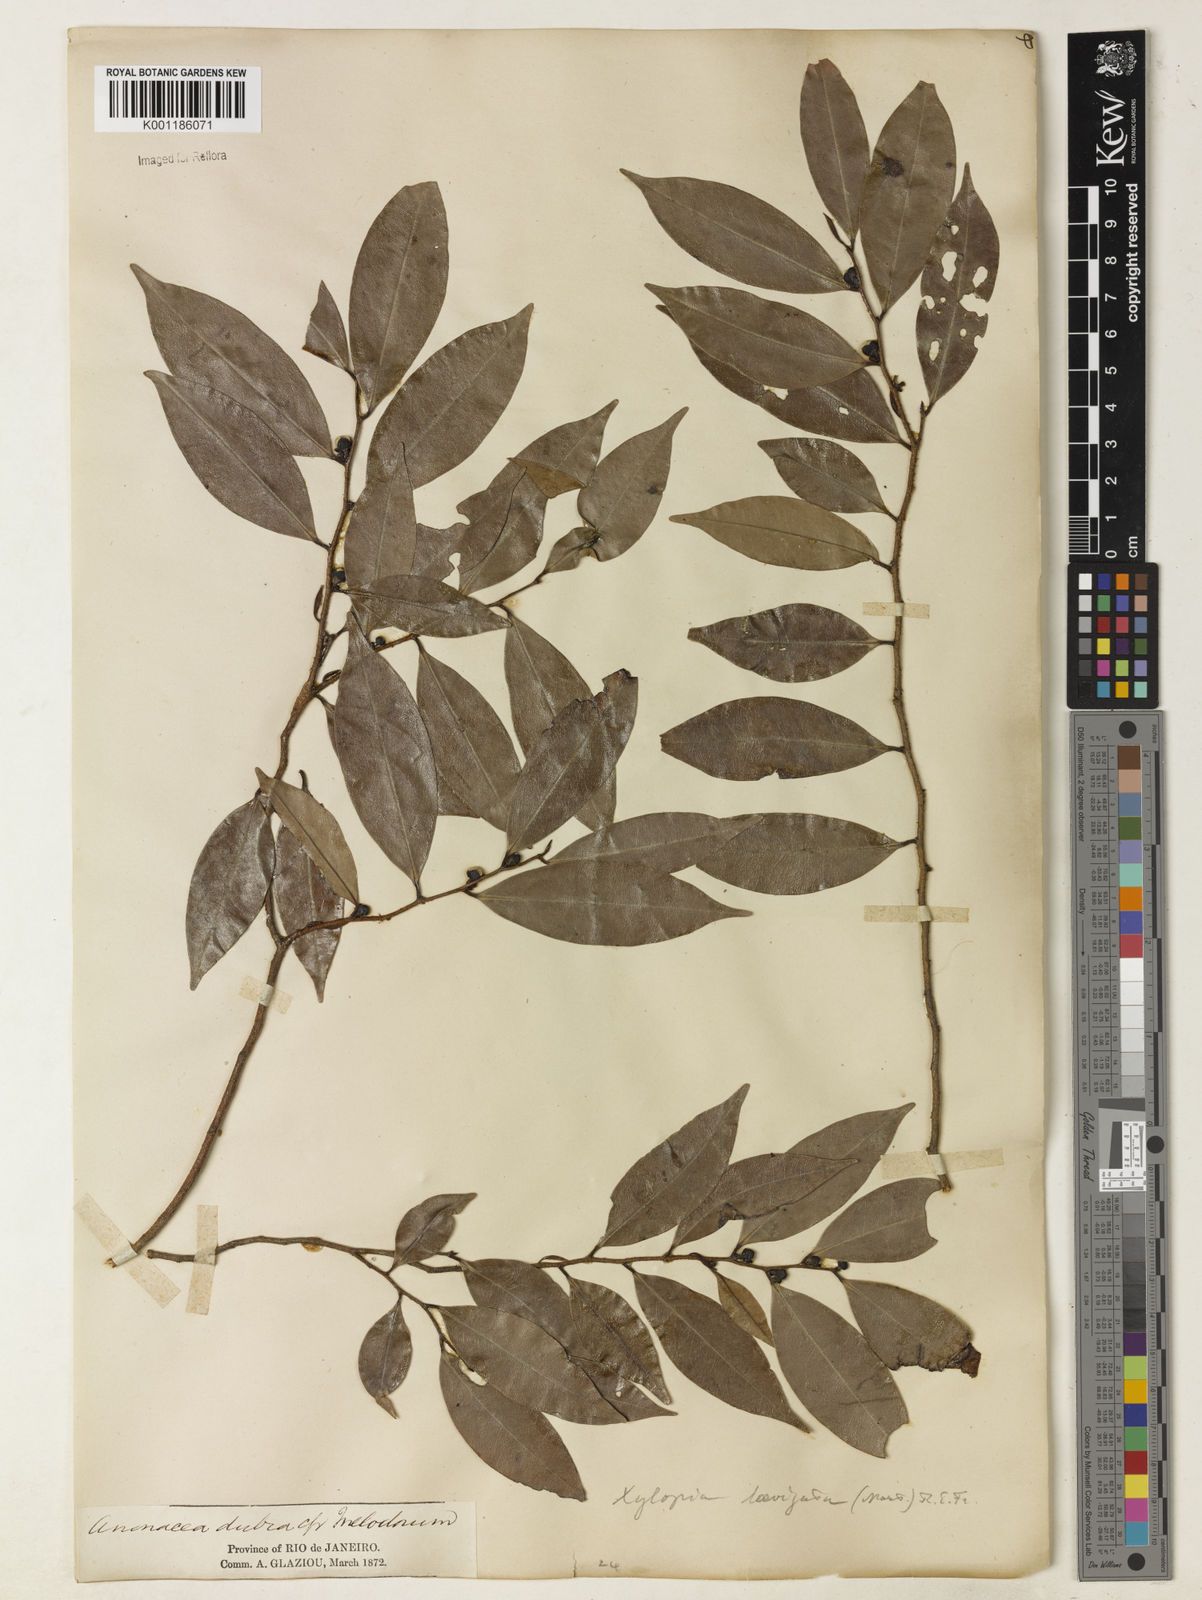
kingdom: Plantae
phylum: Tracheophyta
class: Magnoliopsida
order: Magnoliales
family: Annonaceae
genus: Xylopia
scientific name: Xylopia laevigata
